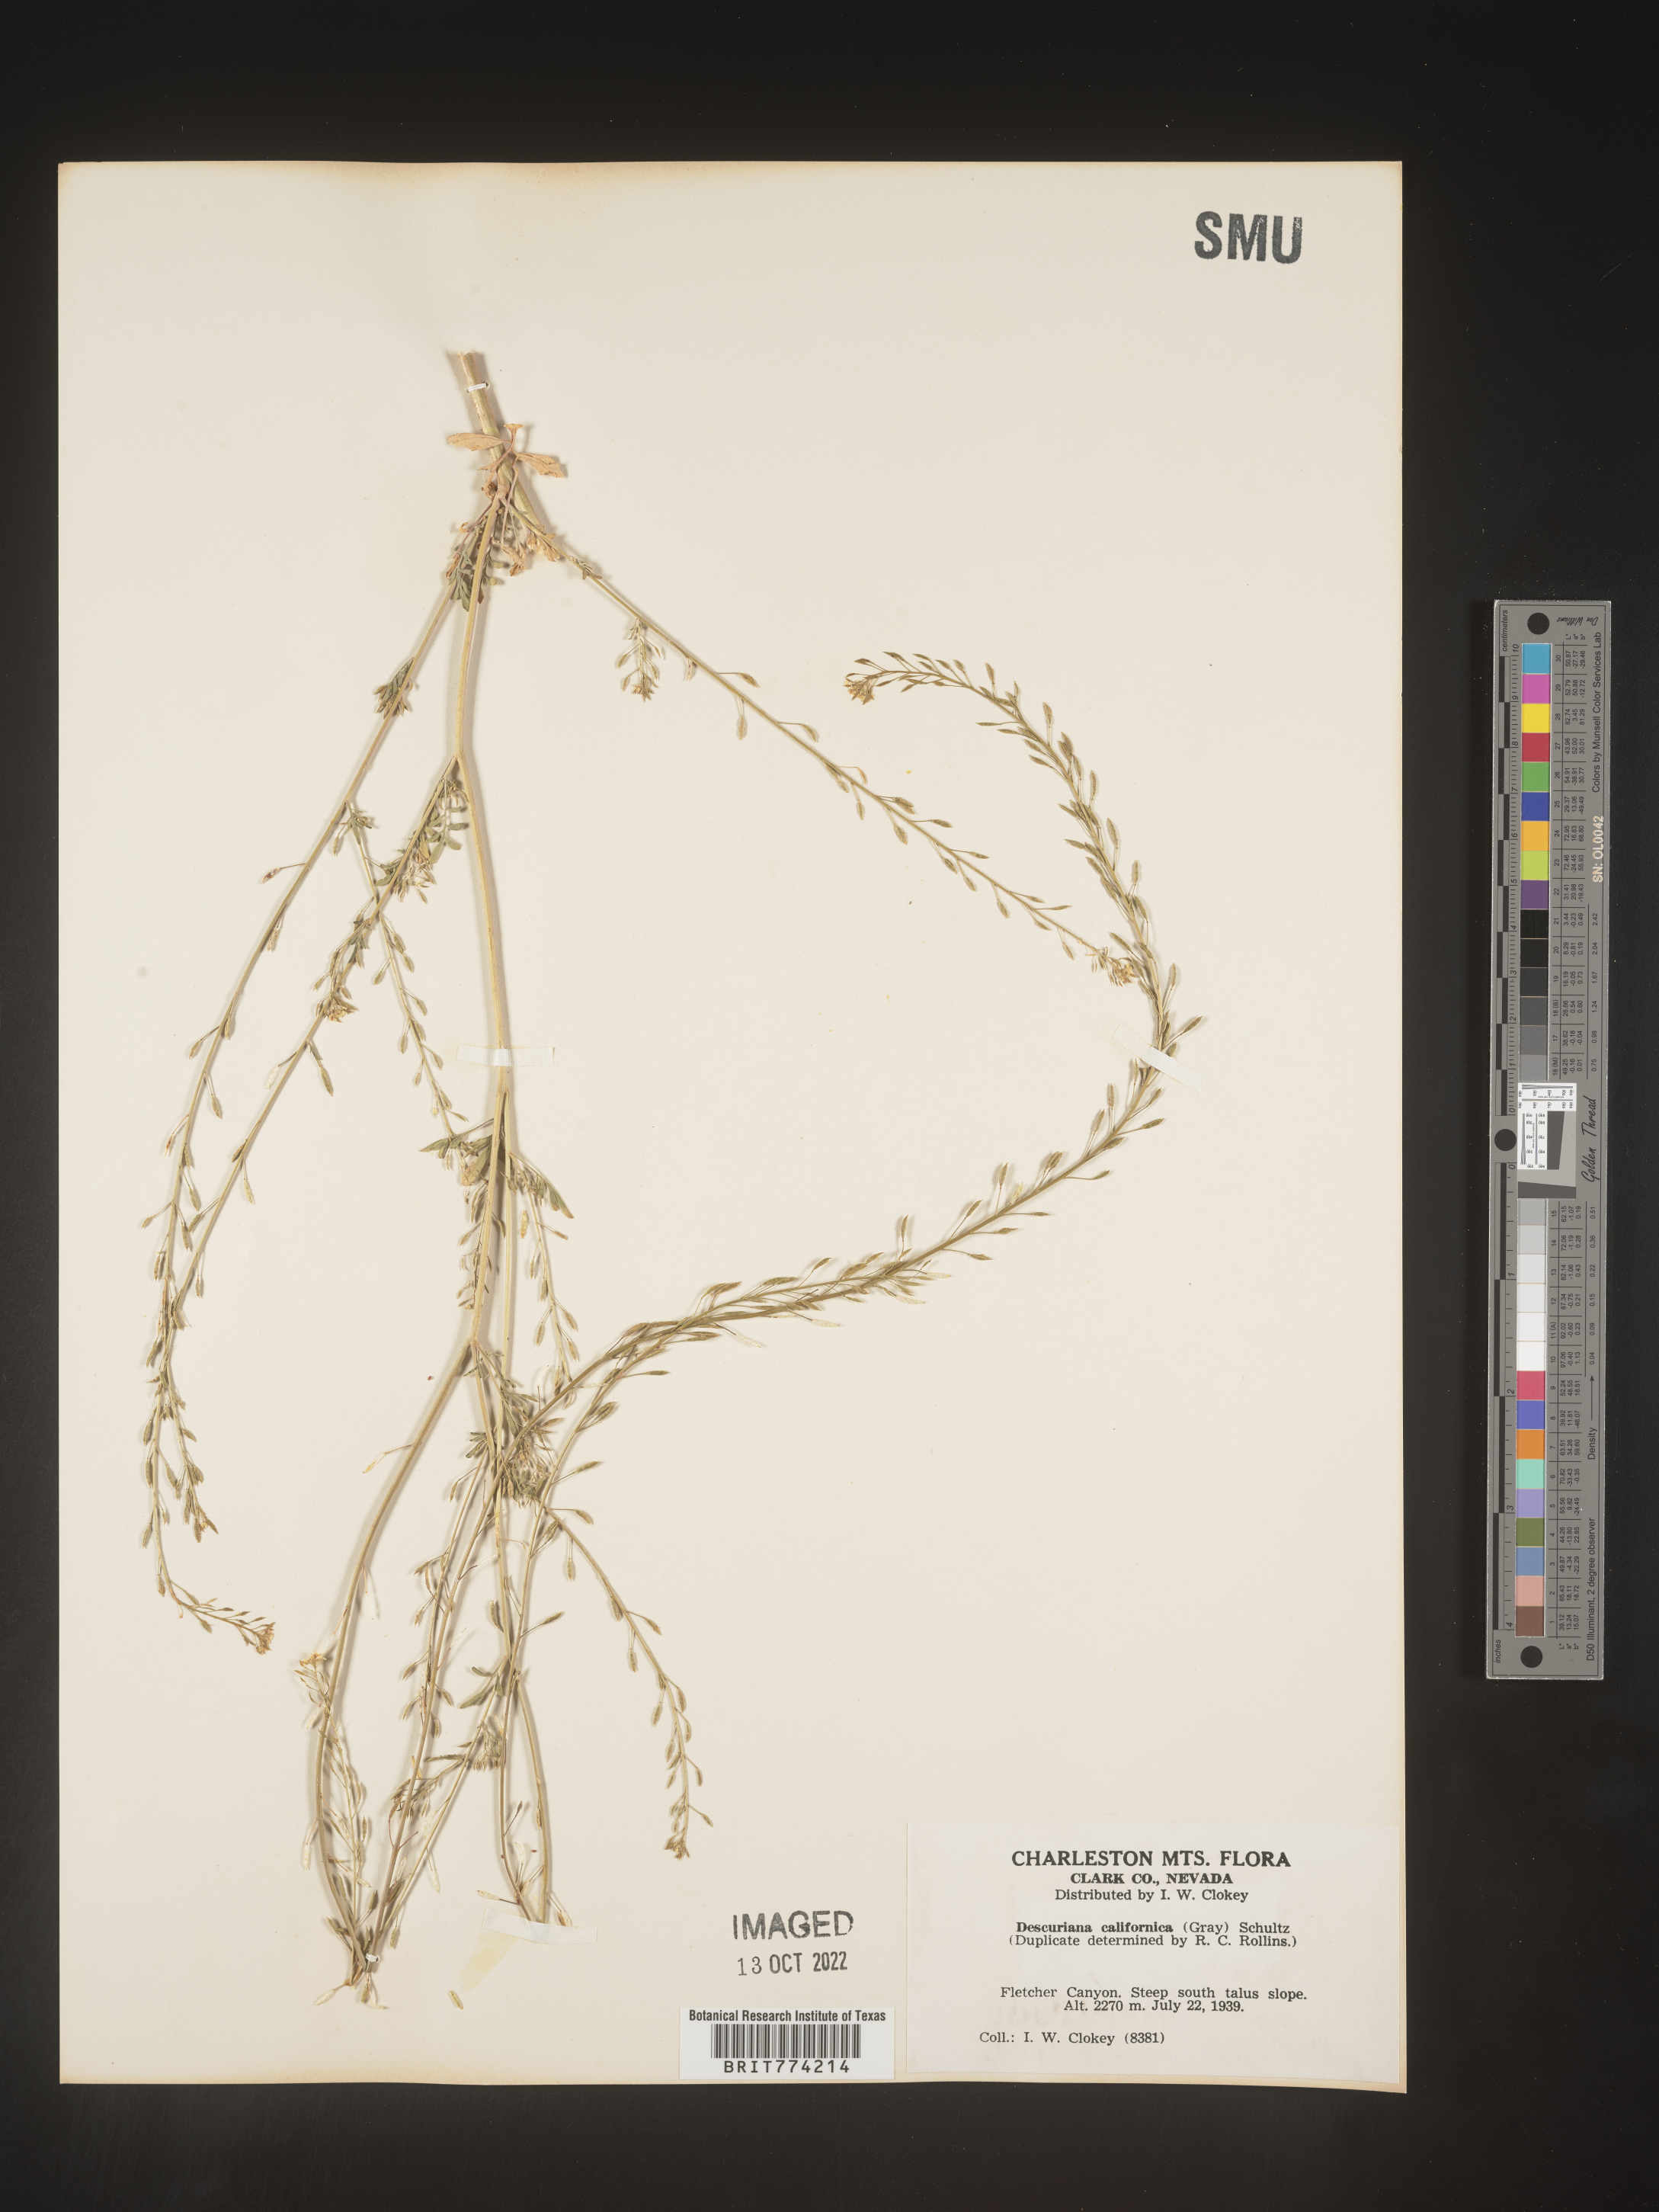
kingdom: Plantae
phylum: Tracheophyta
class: Magnoliopsida
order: Brassicales
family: Brassicaceae
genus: Descurainia
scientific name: Descurainia
